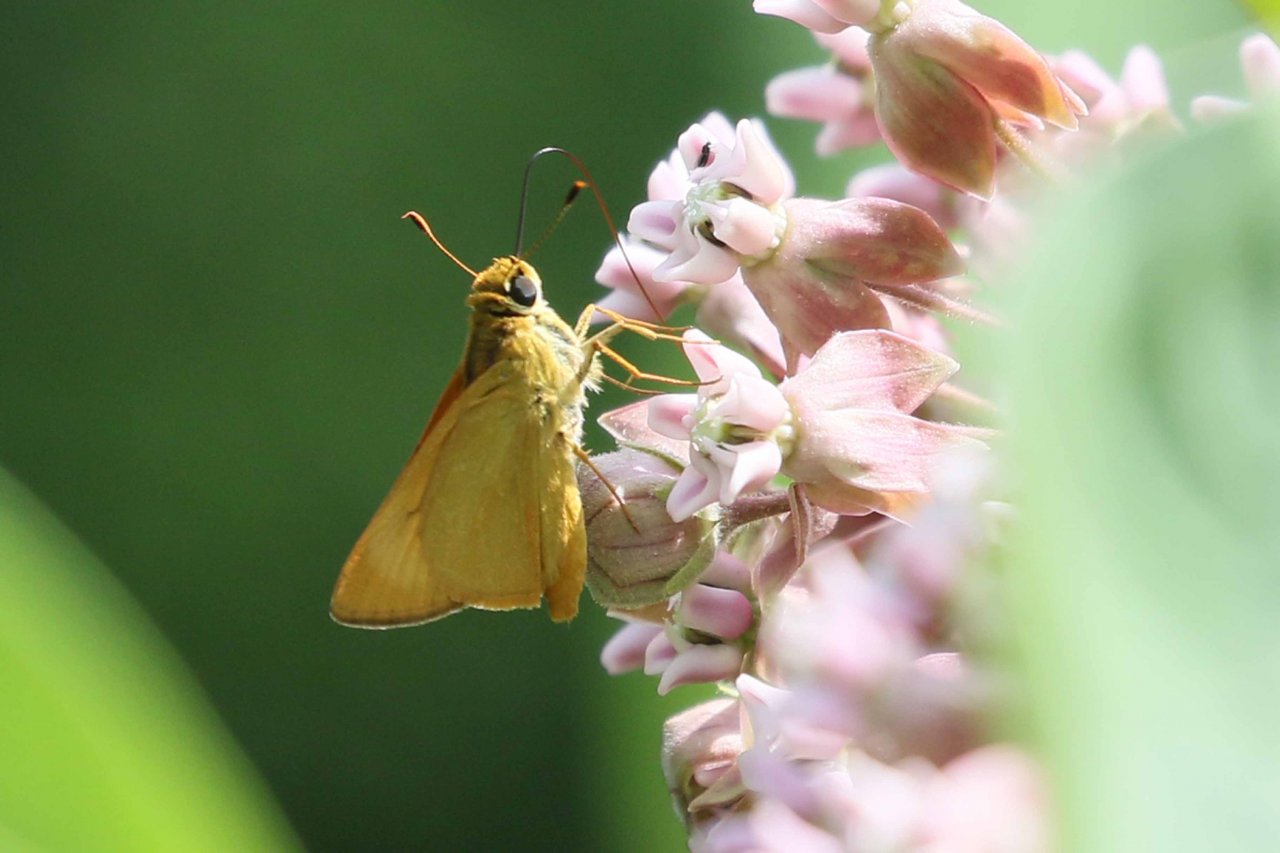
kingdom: Animalia
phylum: Arthropoda
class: Insecta
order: Lepidoptera
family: Hesperiidae
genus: Atrytone
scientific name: Atrytone delaware
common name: Delaware Skipper
